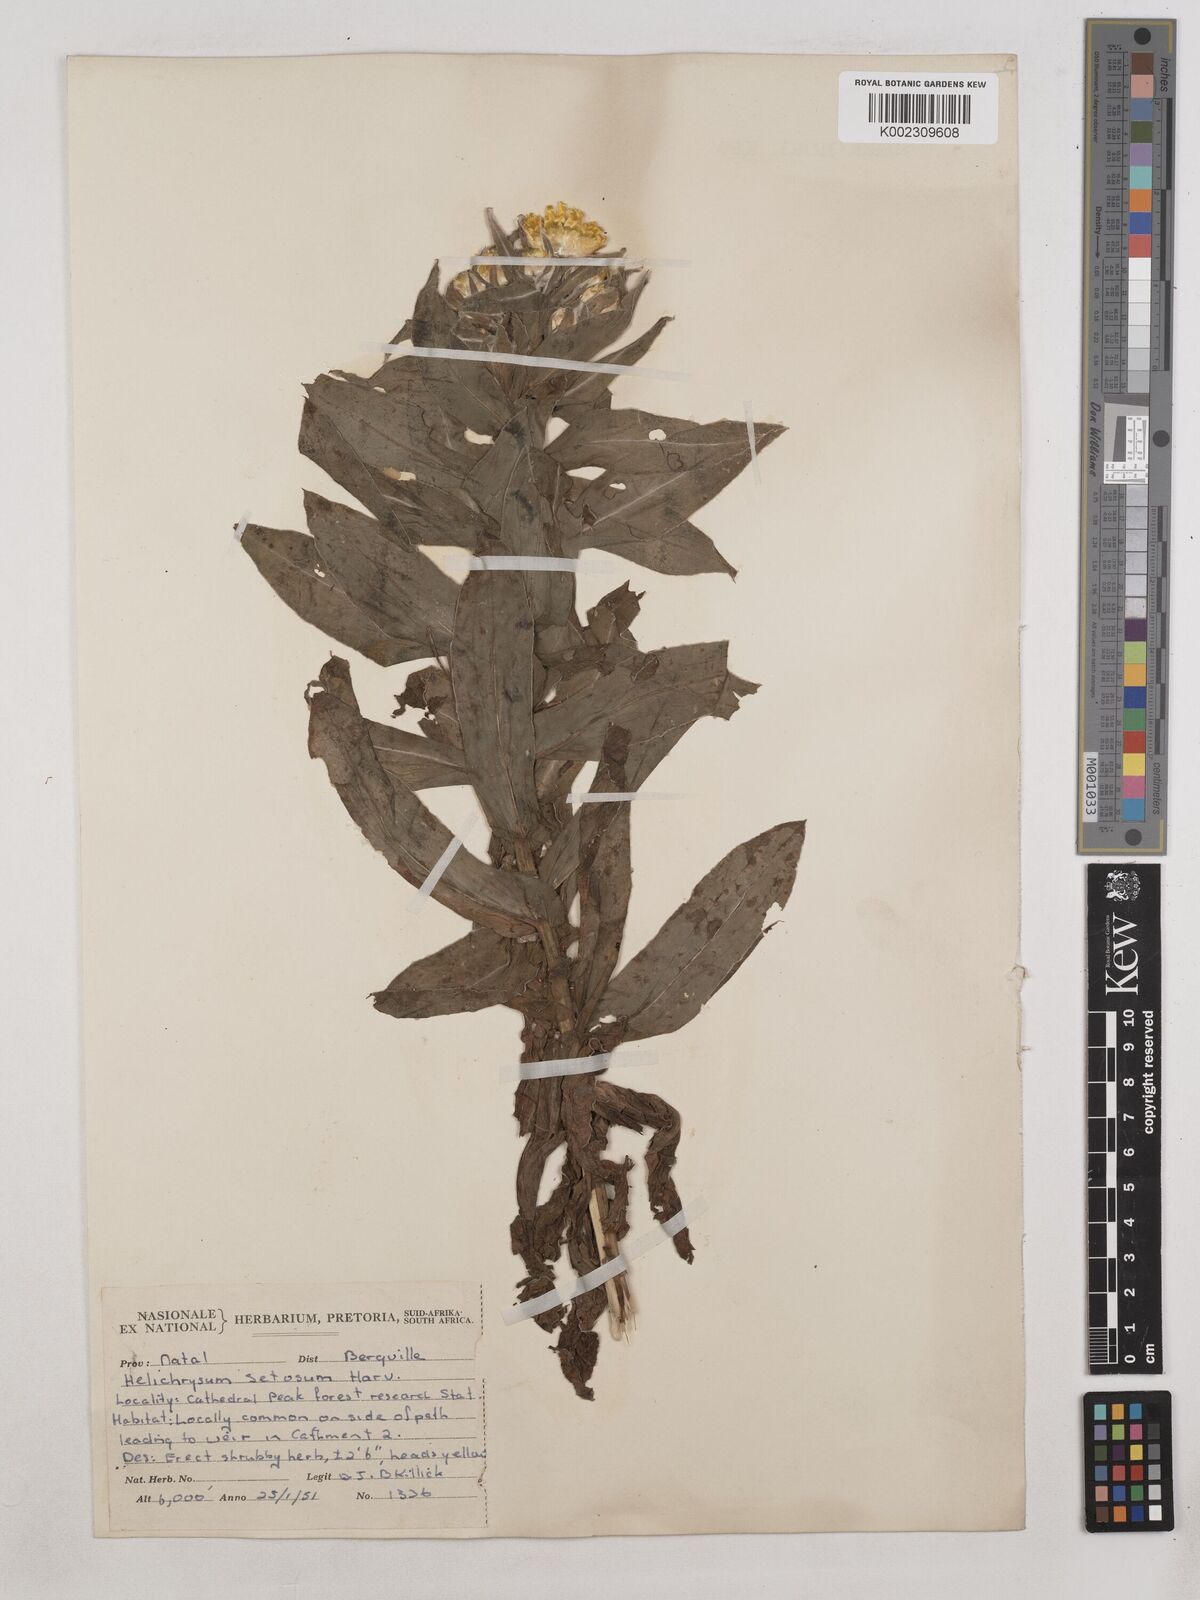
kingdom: Plantae
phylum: Tracheophyta
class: Magnoliopsida
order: Asterales
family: Asteraceae
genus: Helichrysum
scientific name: Helichrysum cooperi
